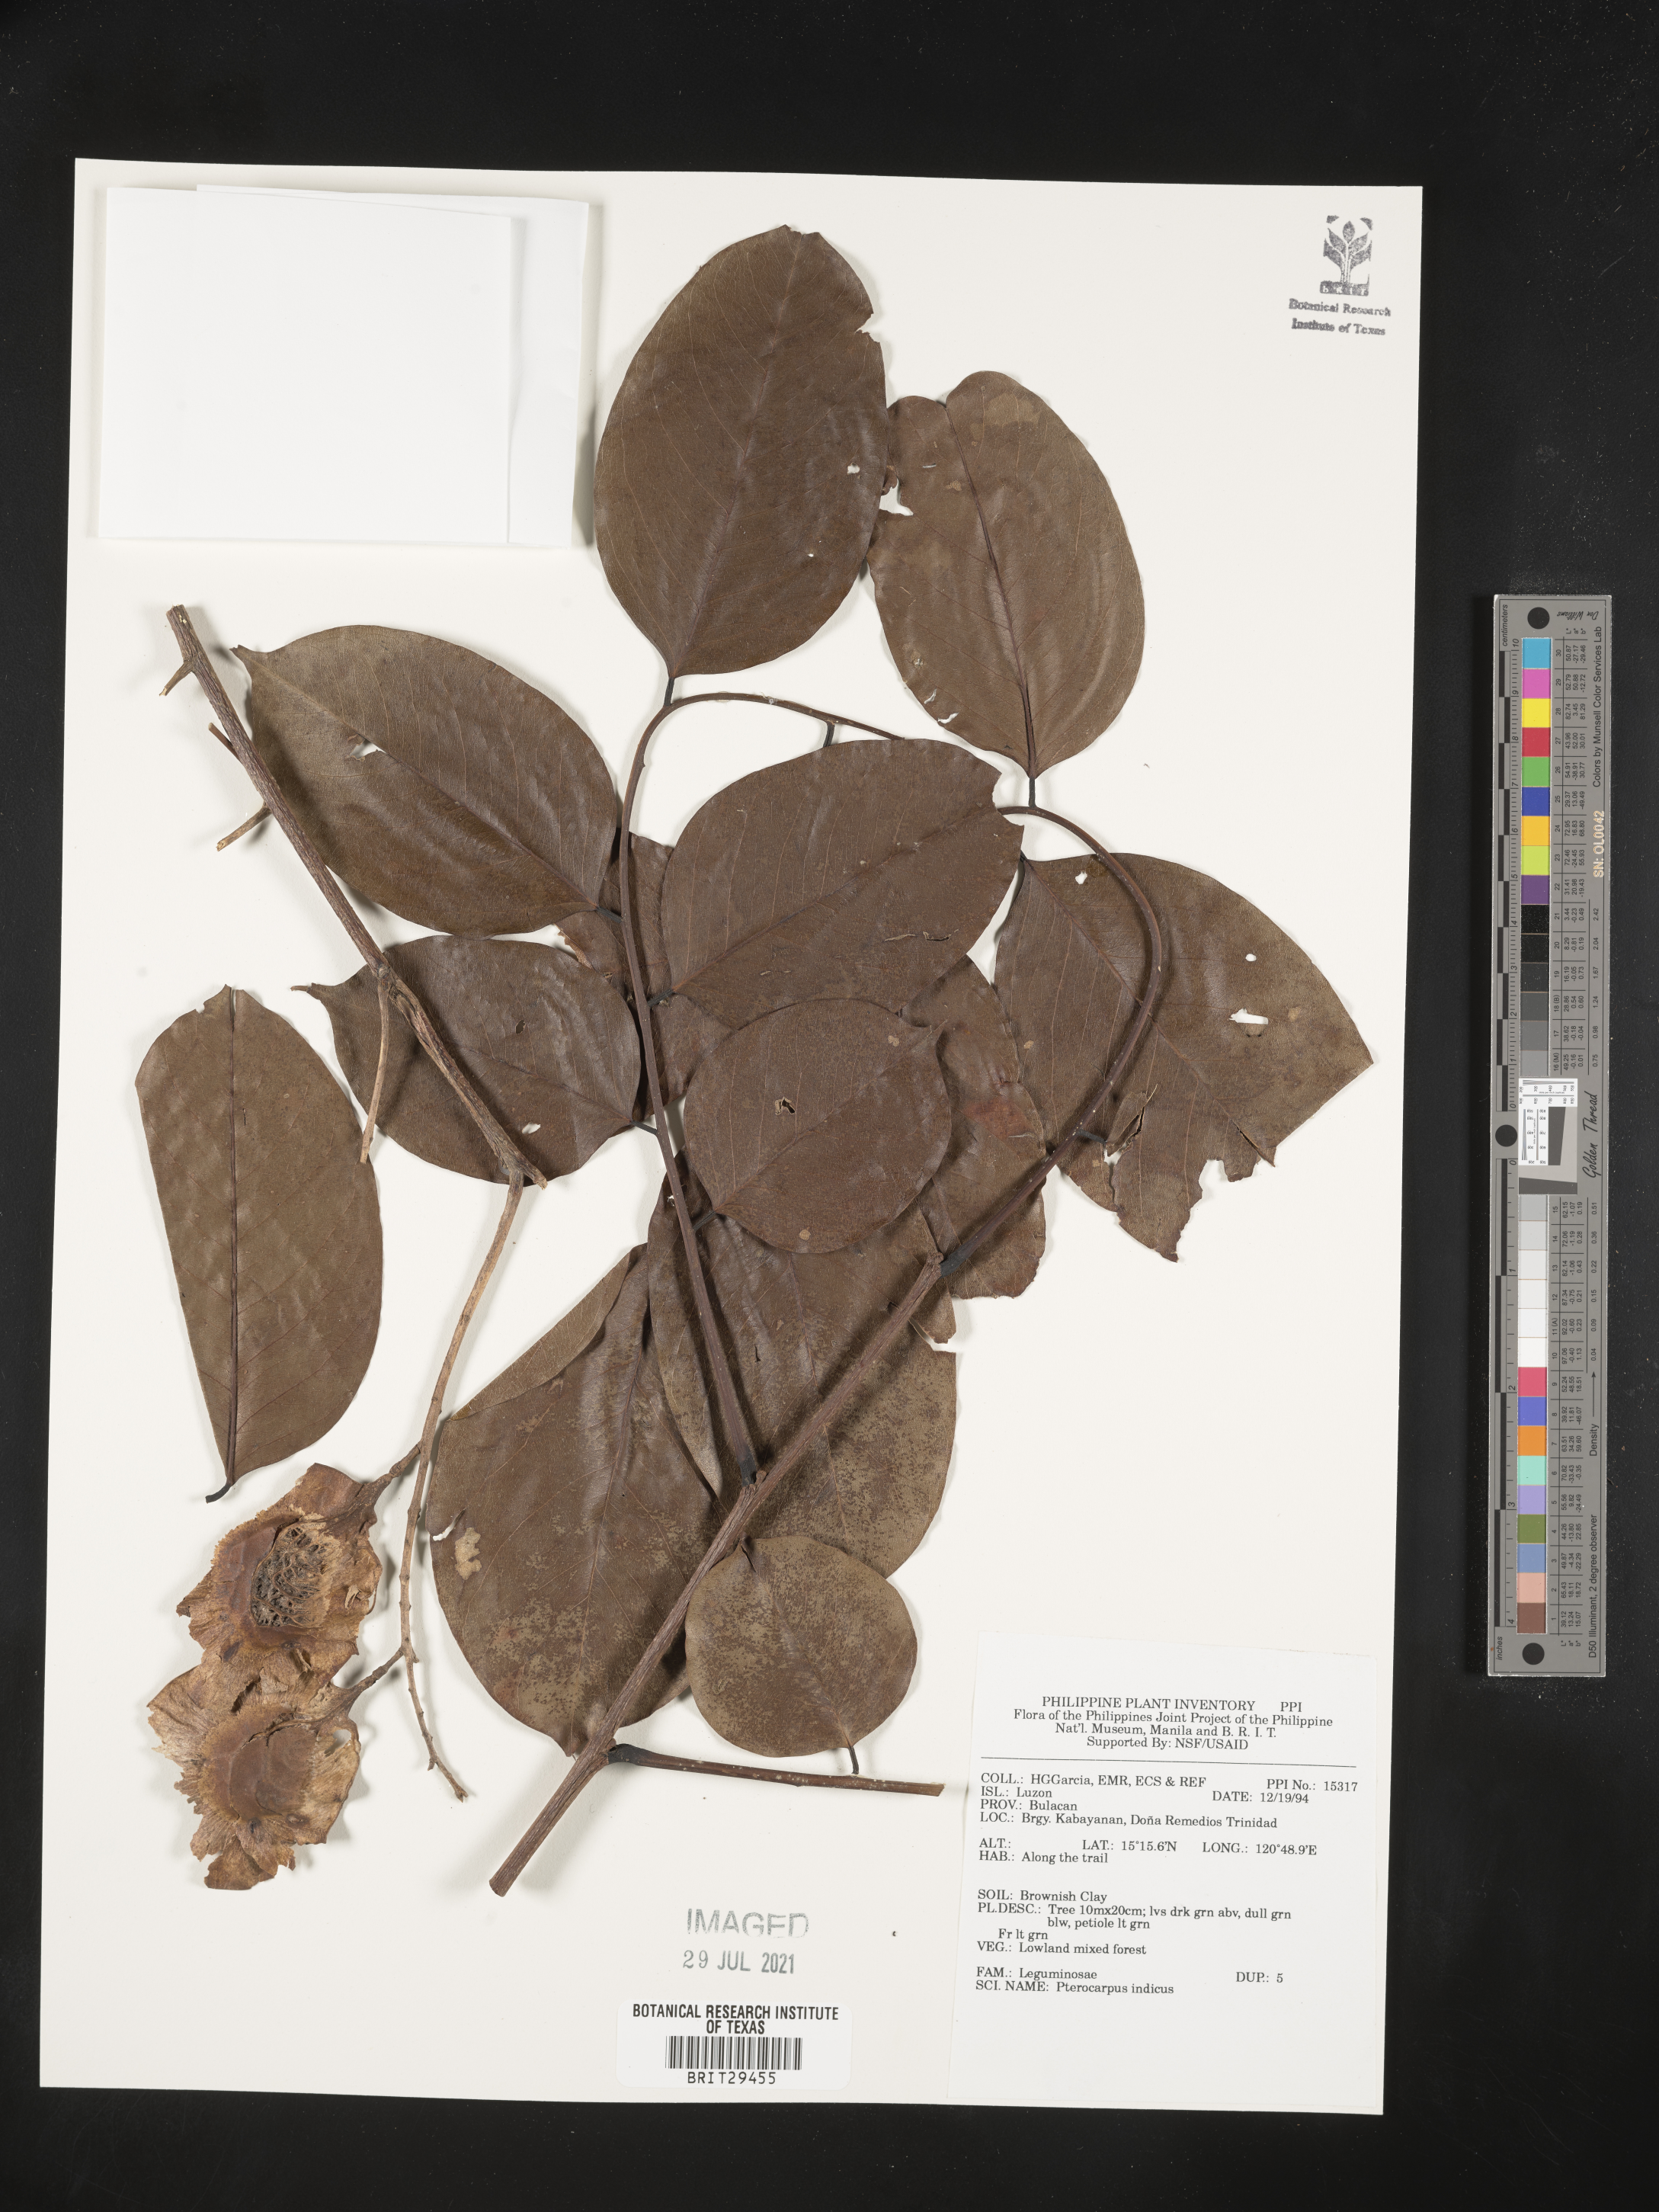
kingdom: Plantae
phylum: Tracheophyta
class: Magnoliopsida
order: Fabales
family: Fabaceae
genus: Pterocarpus
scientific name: Pterocarpus indicus
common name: Burmese rosewood
